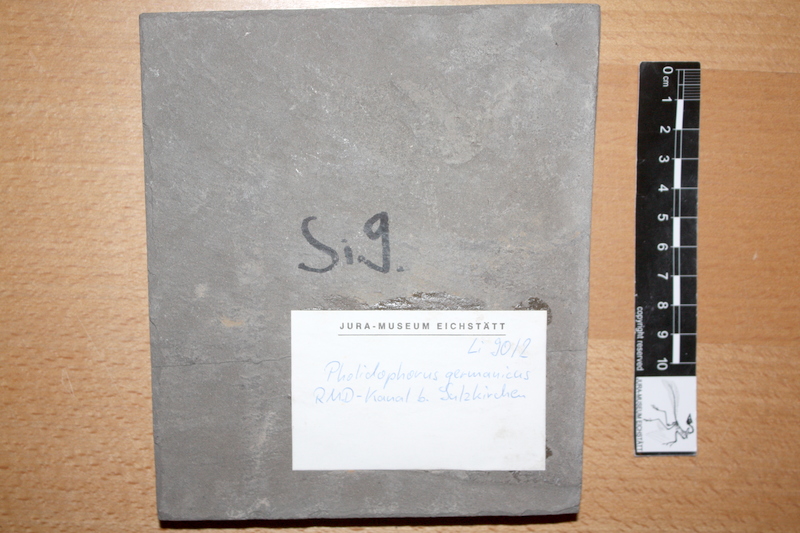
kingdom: Animalia
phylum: Chordata
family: Pholidophoridae
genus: Pholidophorus
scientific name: Pholidophorus germanicus
